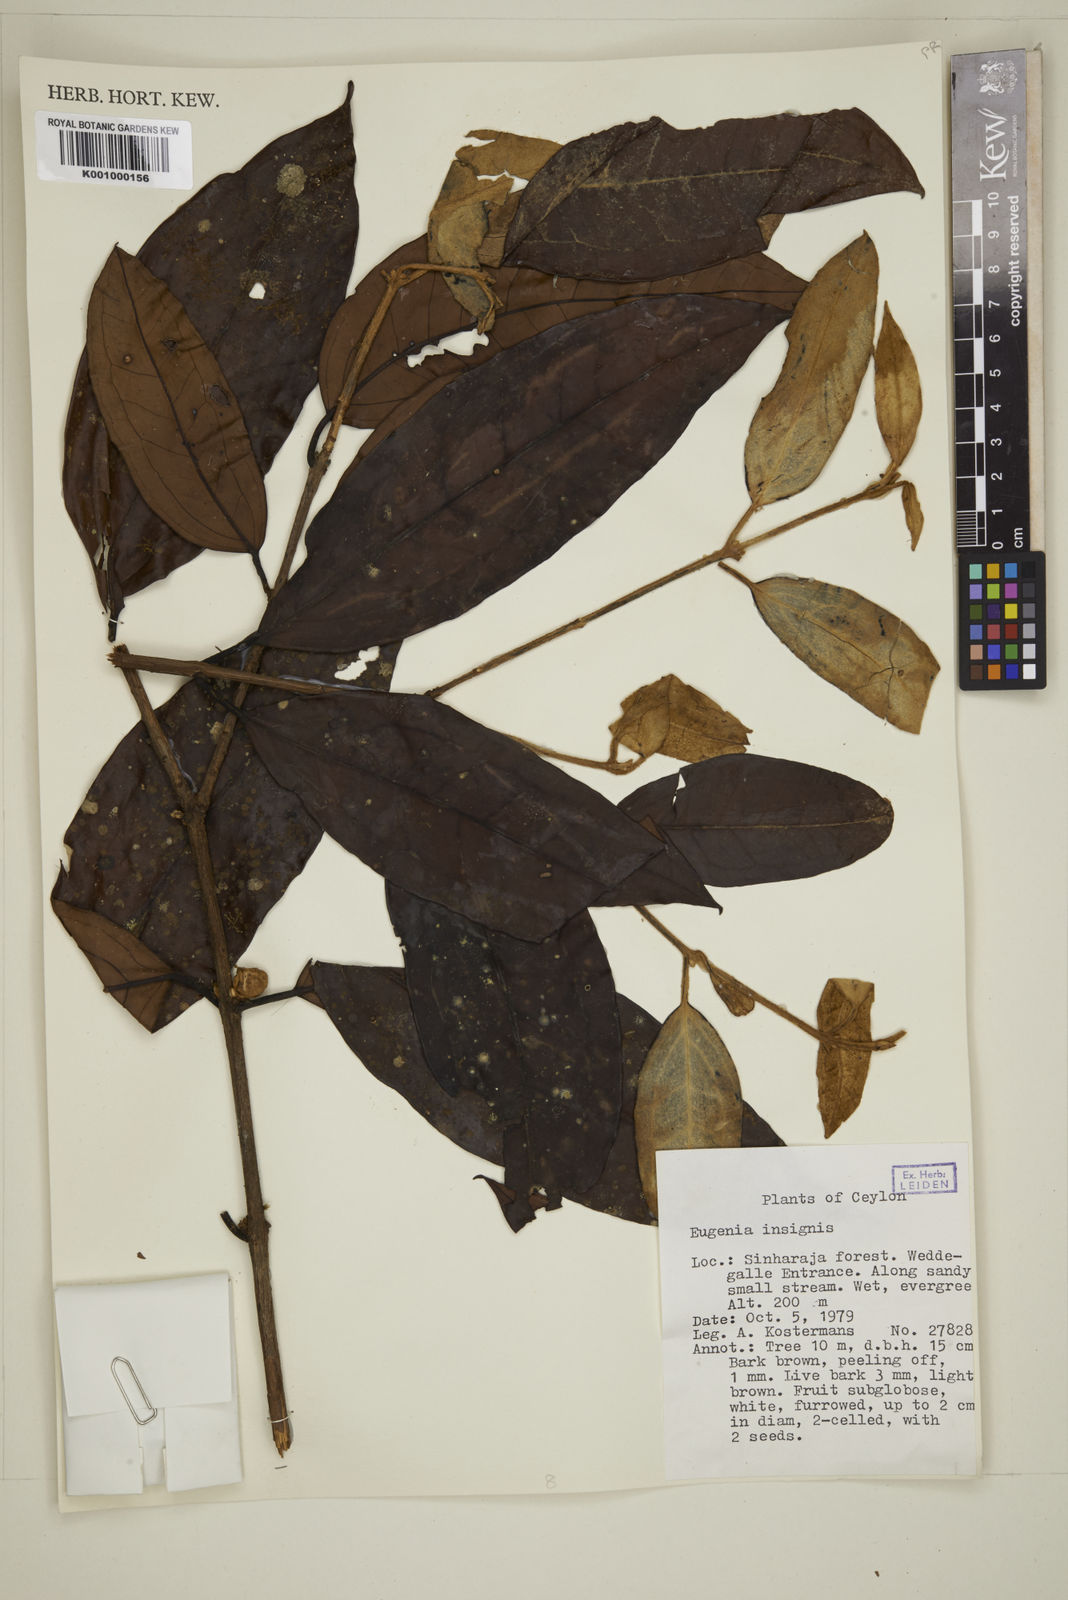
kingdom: Plantae
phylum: Tracheophyta
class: Magnoliopsida
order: Myrtales
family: Myrtaceae
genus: Eugenia
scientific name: Eugenia fulva
